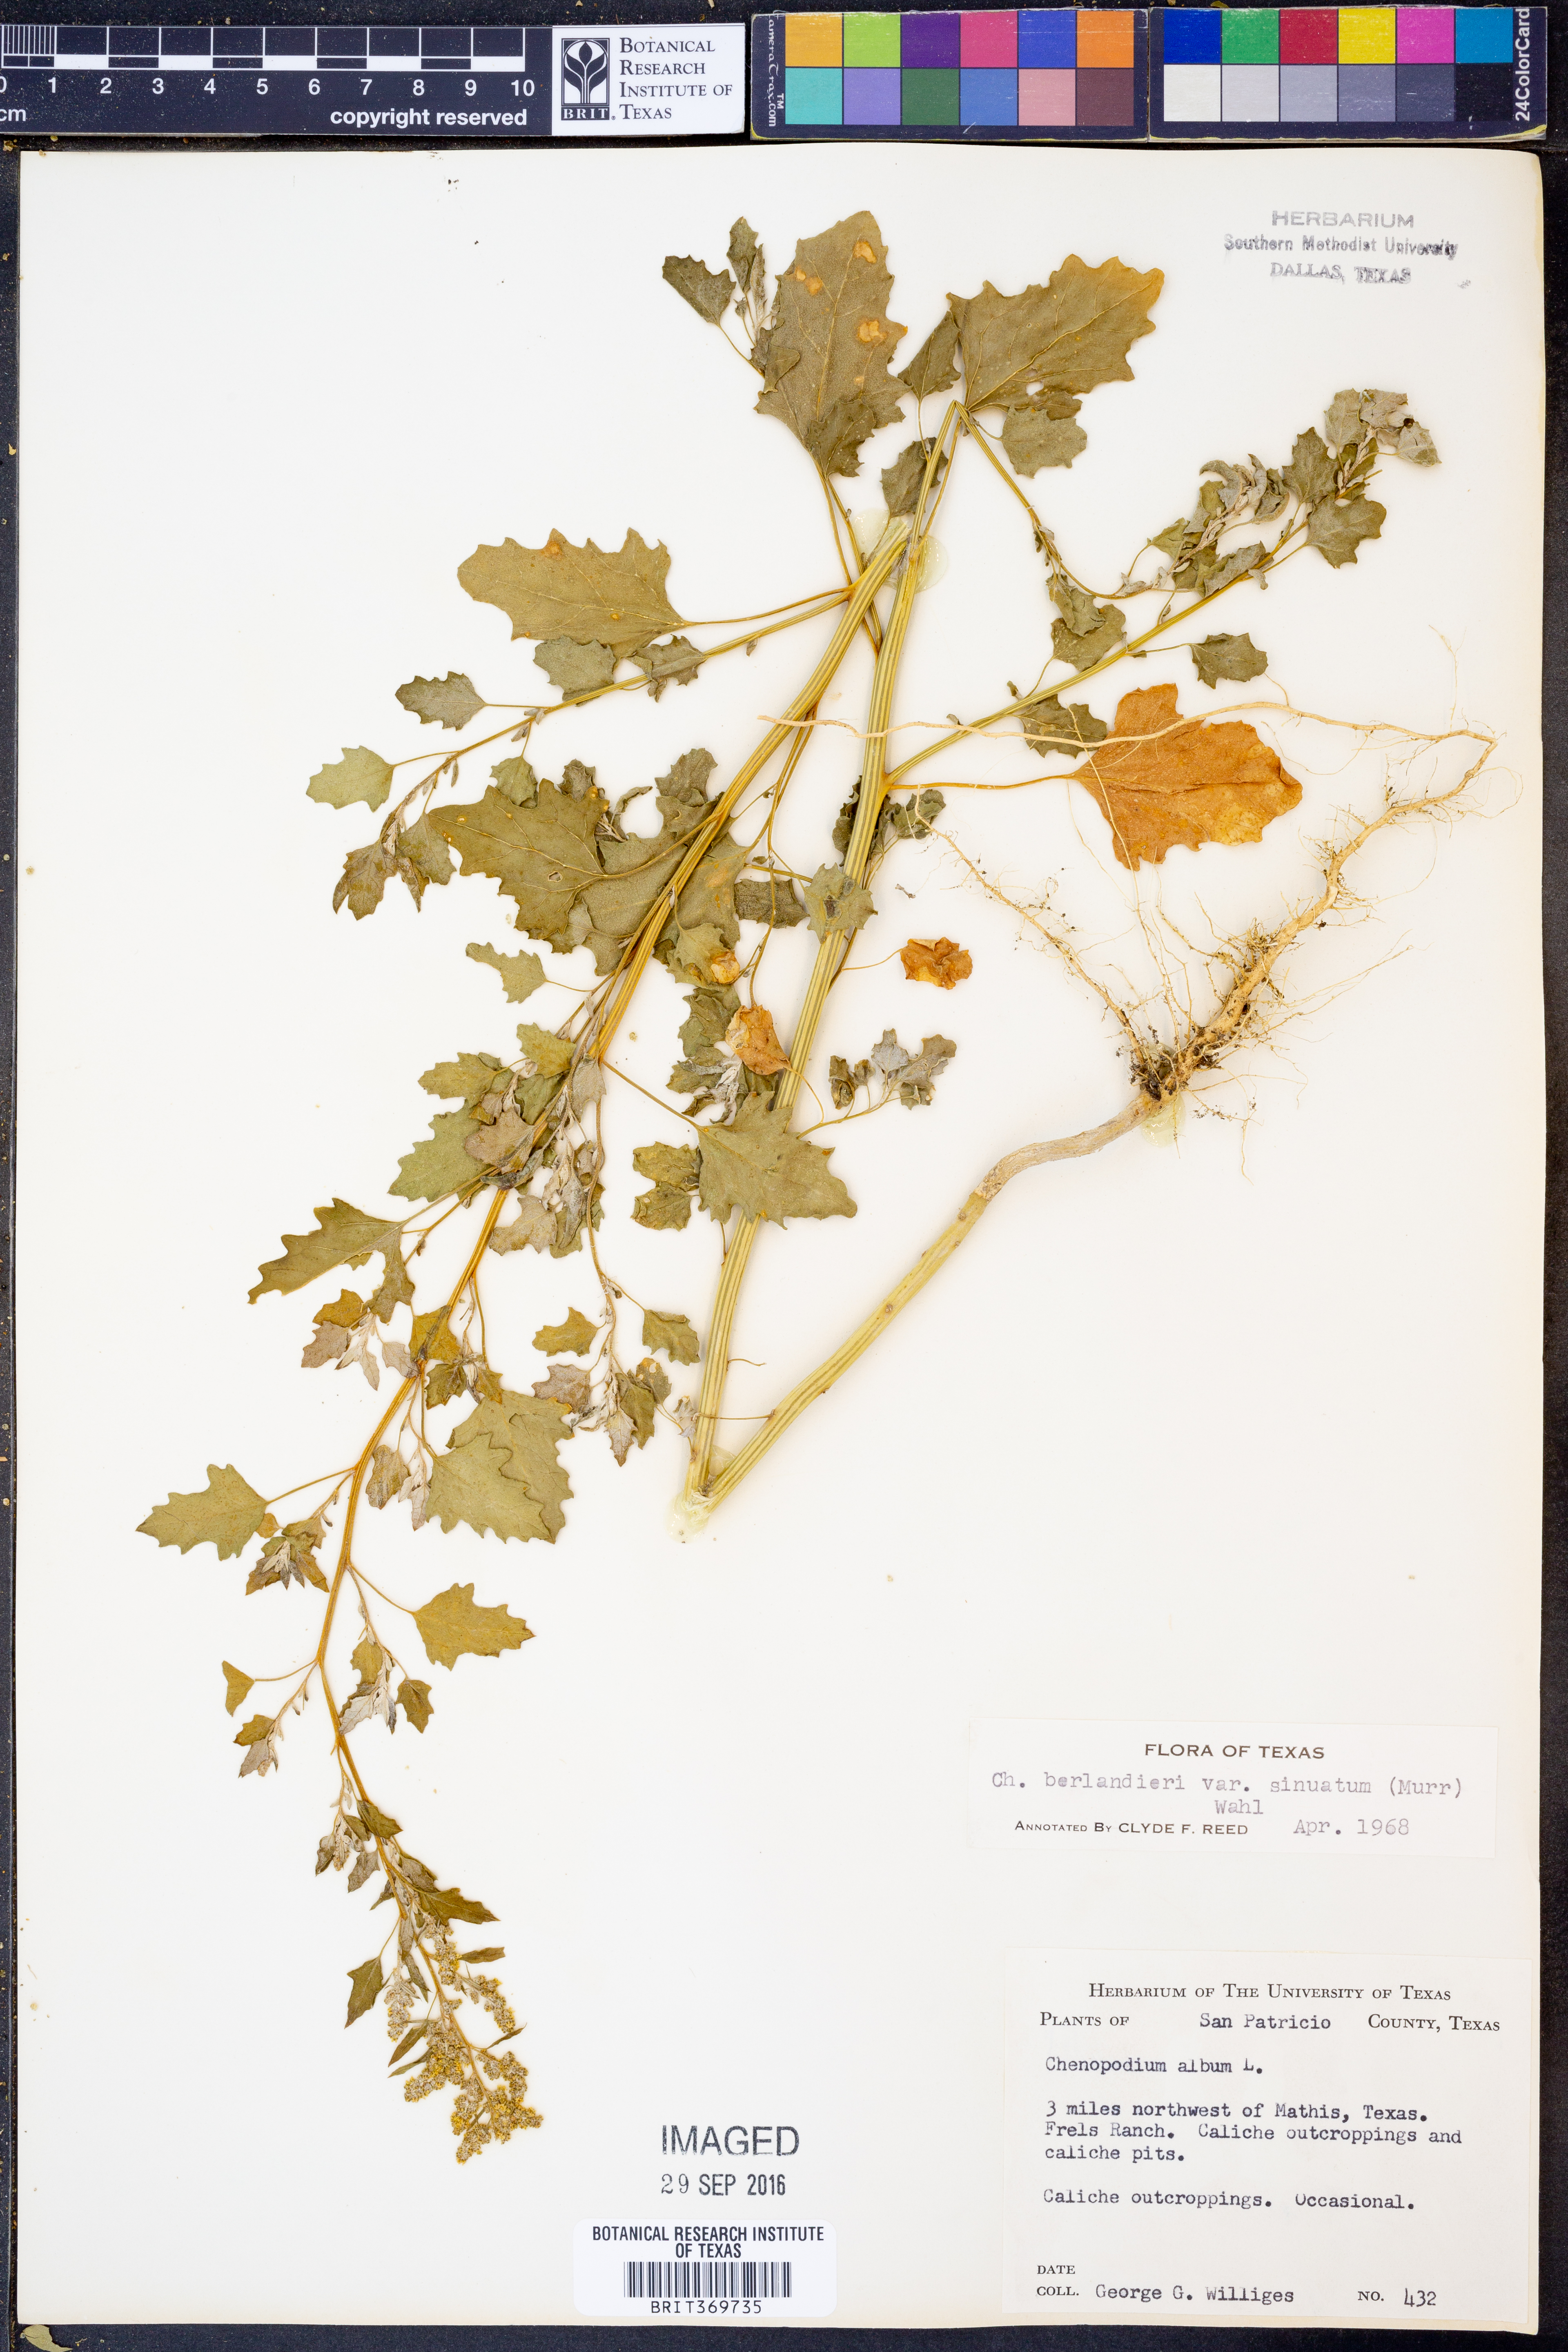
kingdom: Plantae
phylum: Tracheophyta
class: Magnoliopsida
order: Caryophyllales
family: Amaranthaceae
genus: Chenopodium
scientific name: Chenopodium berlandieri
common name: Pit-seed goosefoot
